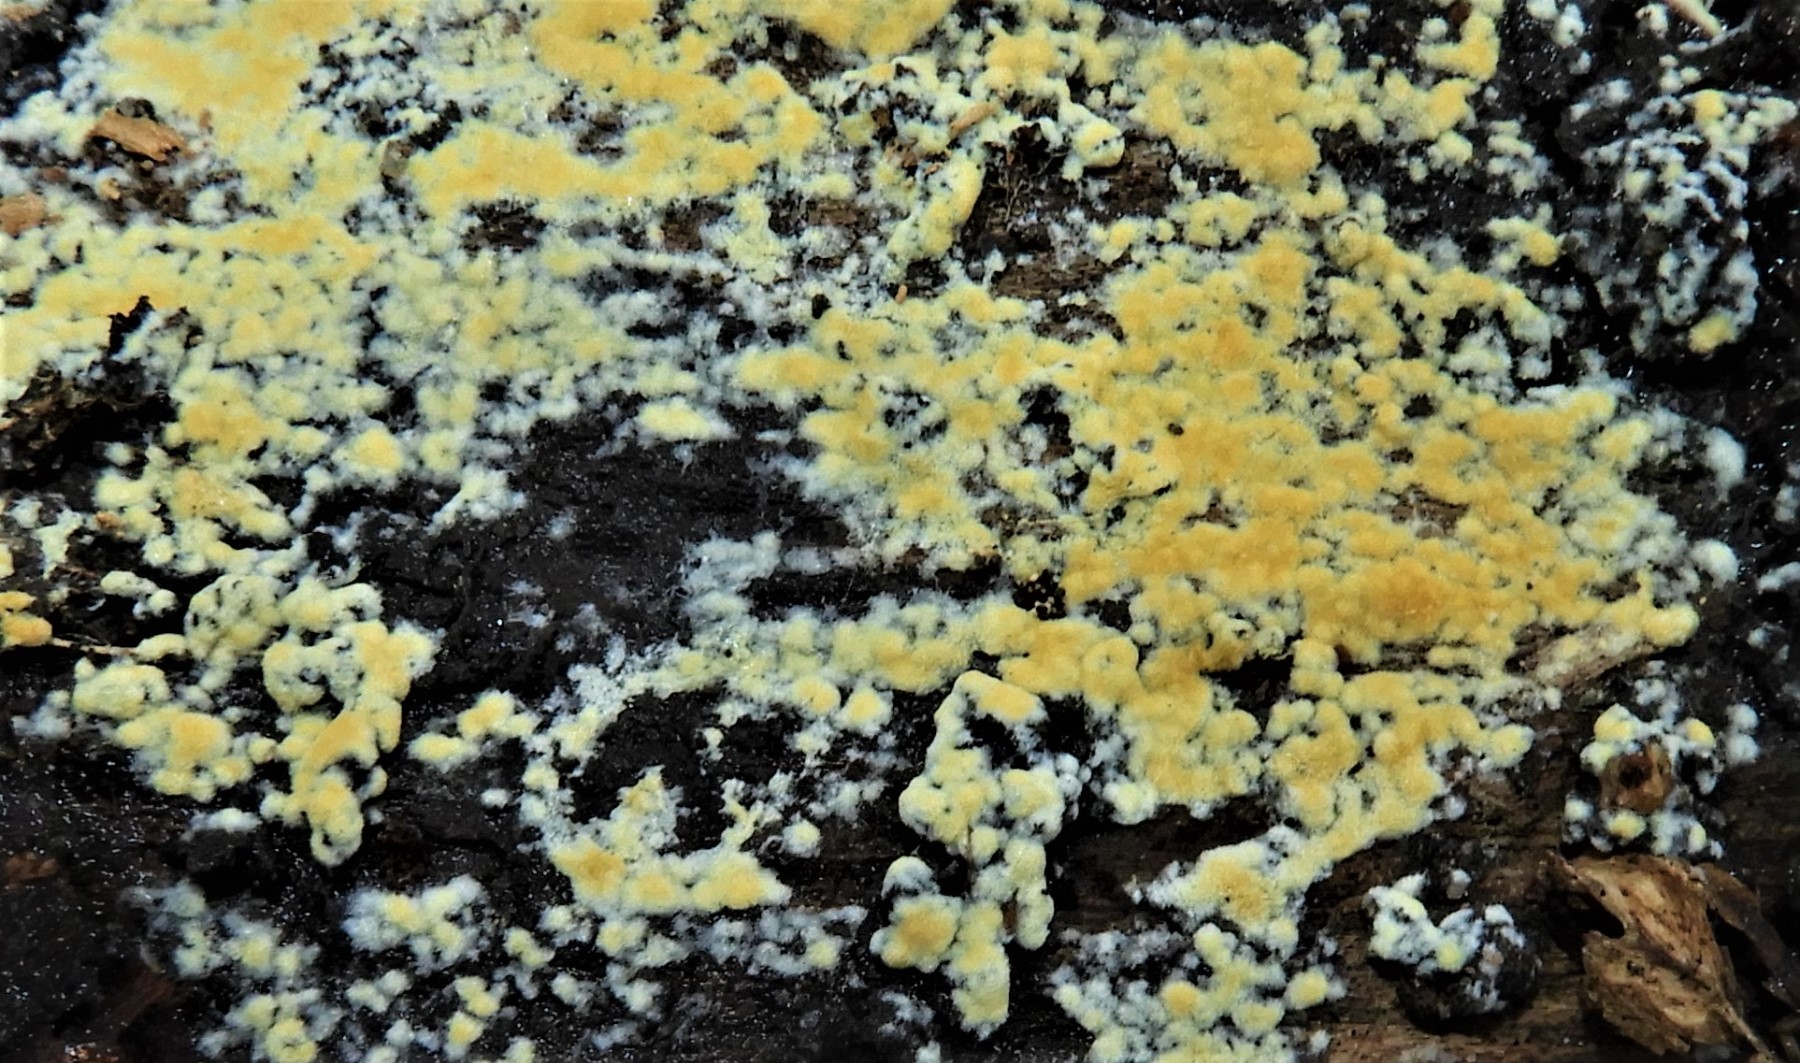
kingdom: Fungi
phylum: Basidiomycota
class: Agaricomycetes
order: Cantharellales
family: Botryobasidiaceae
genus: Botryobasidium
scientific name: Botryobasidium aureum
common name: gylden spindhinde
